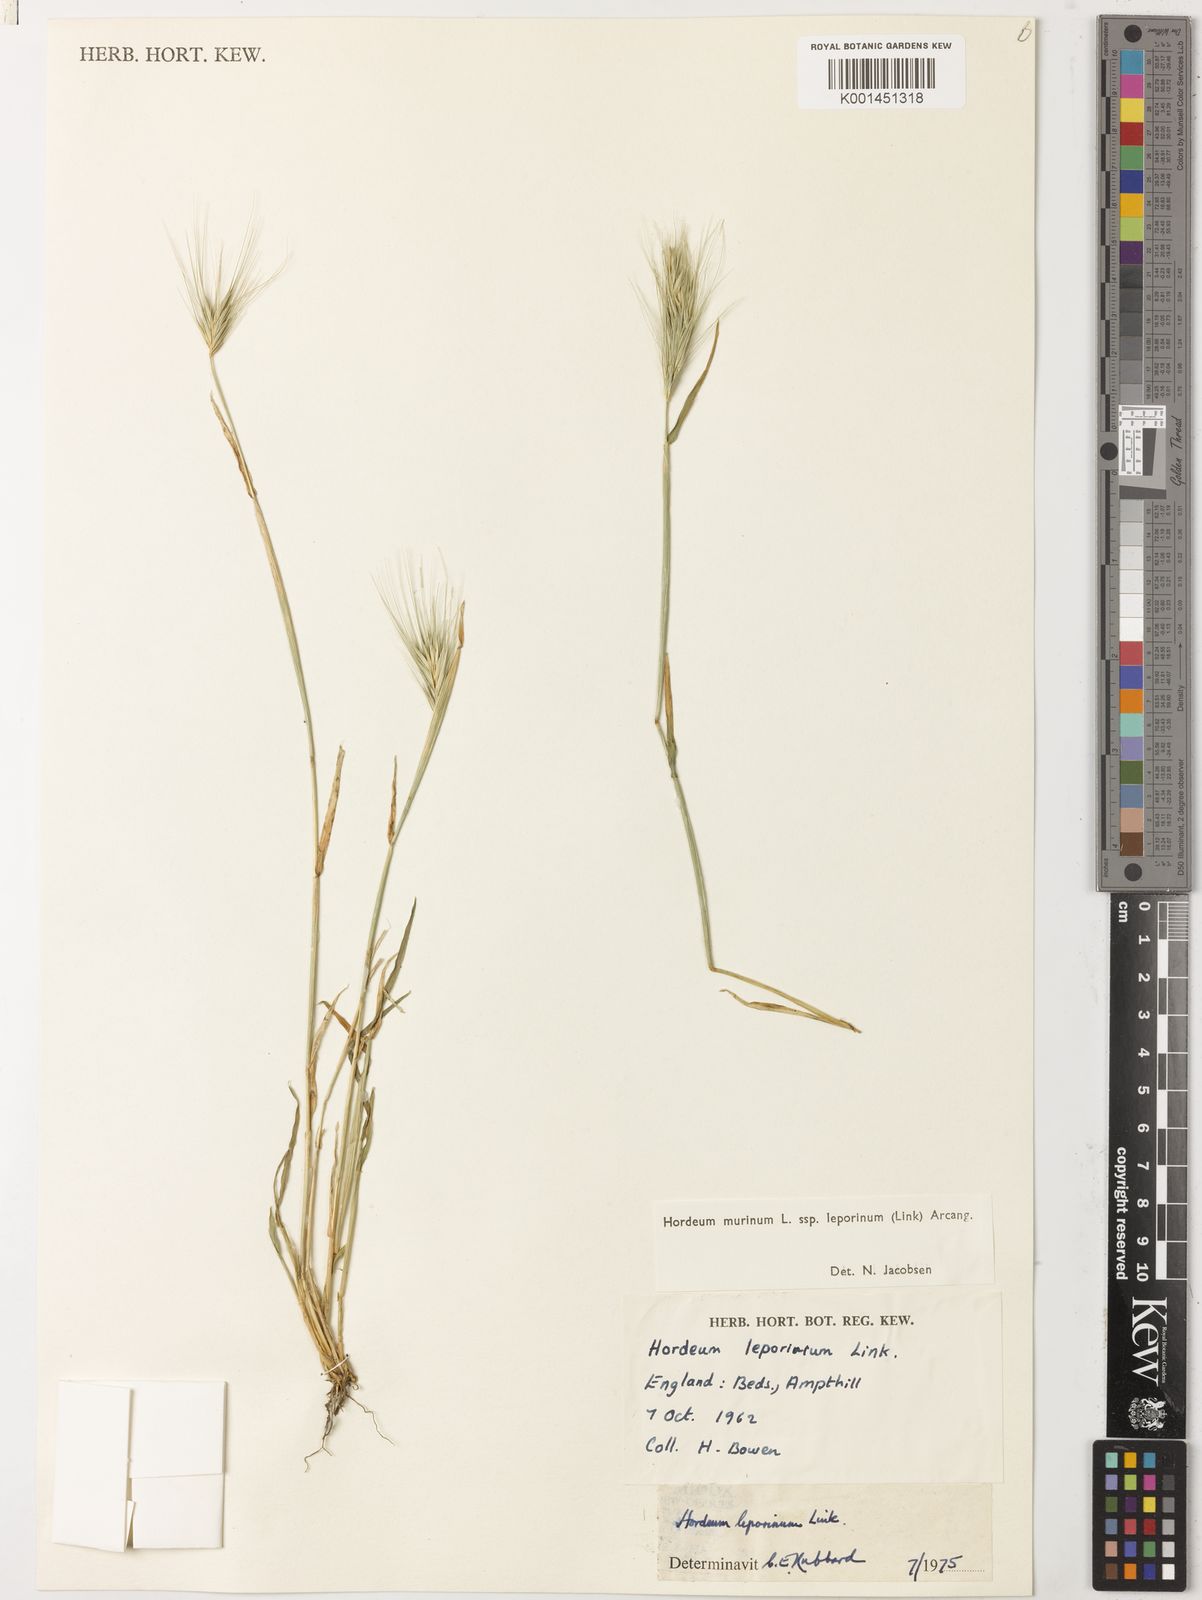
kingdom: Plantae
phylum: Tracheophyta
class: Liliopsida
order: Poales
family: Poaceae
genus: Hordeum
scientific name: Hordeum murinum
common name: Wall barley
